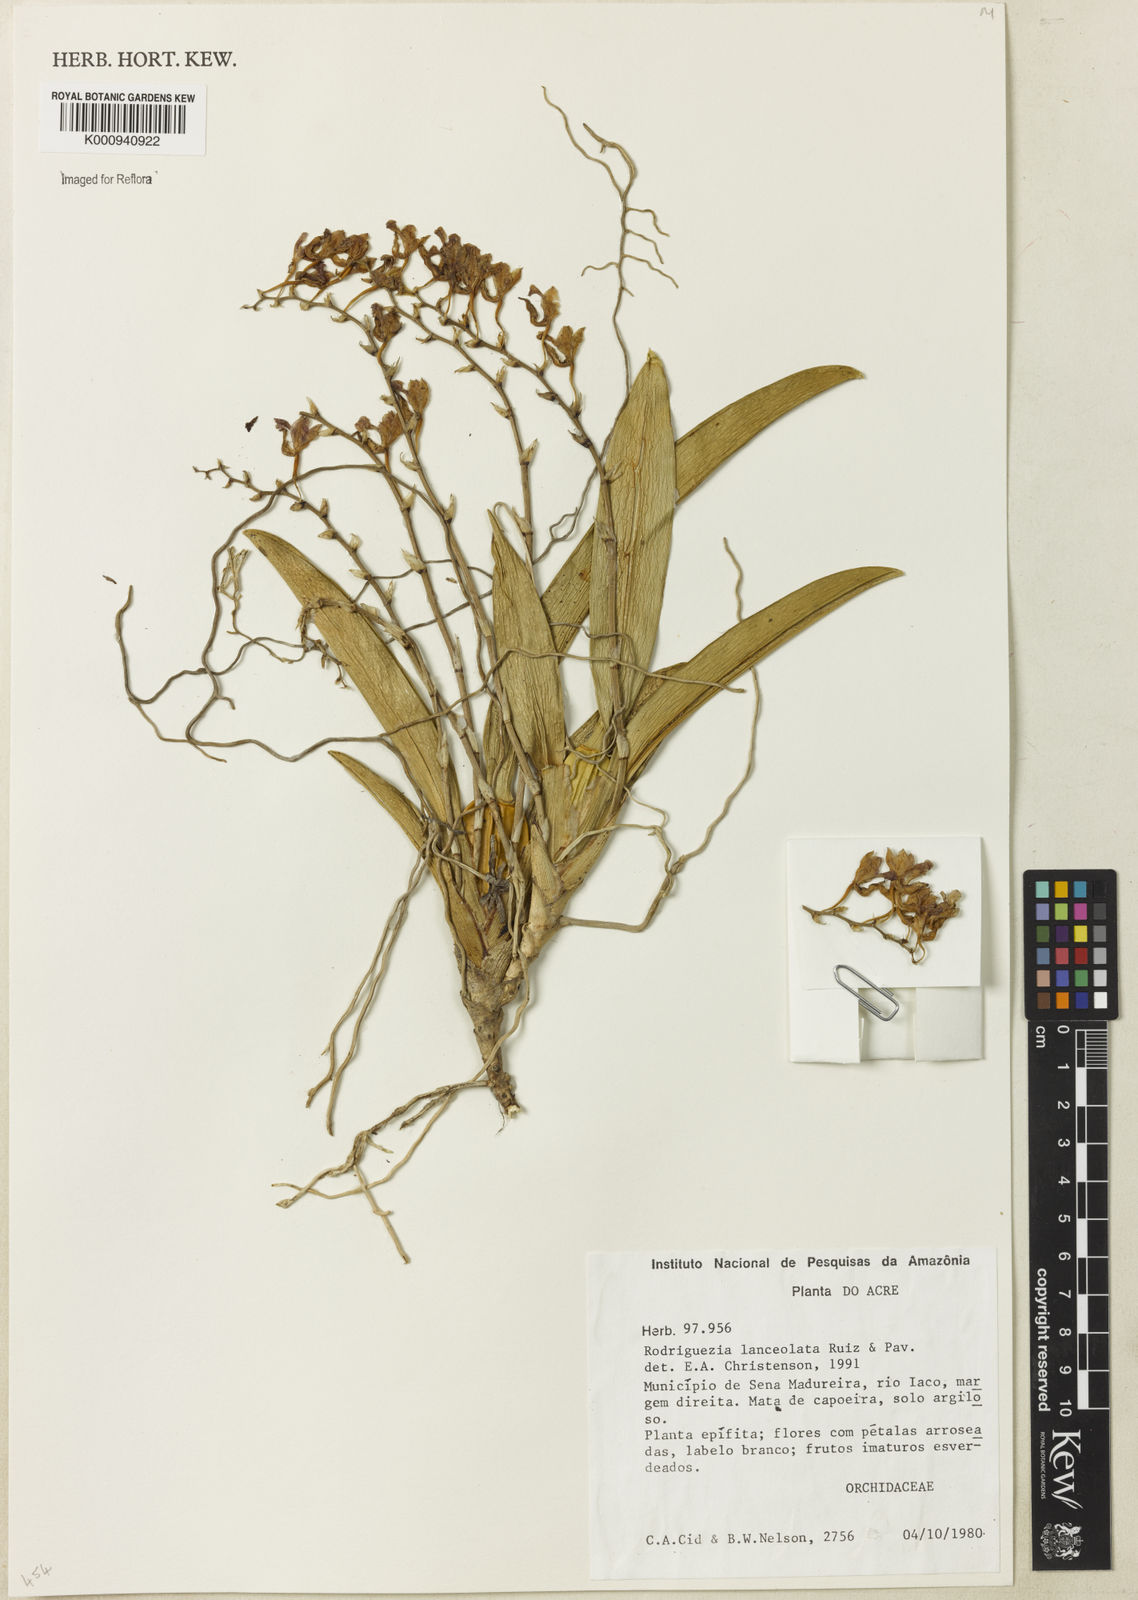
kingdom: Plantae
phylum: Tracheophyta
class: Liliopsida
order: Asparagales
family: Orchidaceae
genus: Rodriguezia
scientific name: Rodriguezia lanceolata
